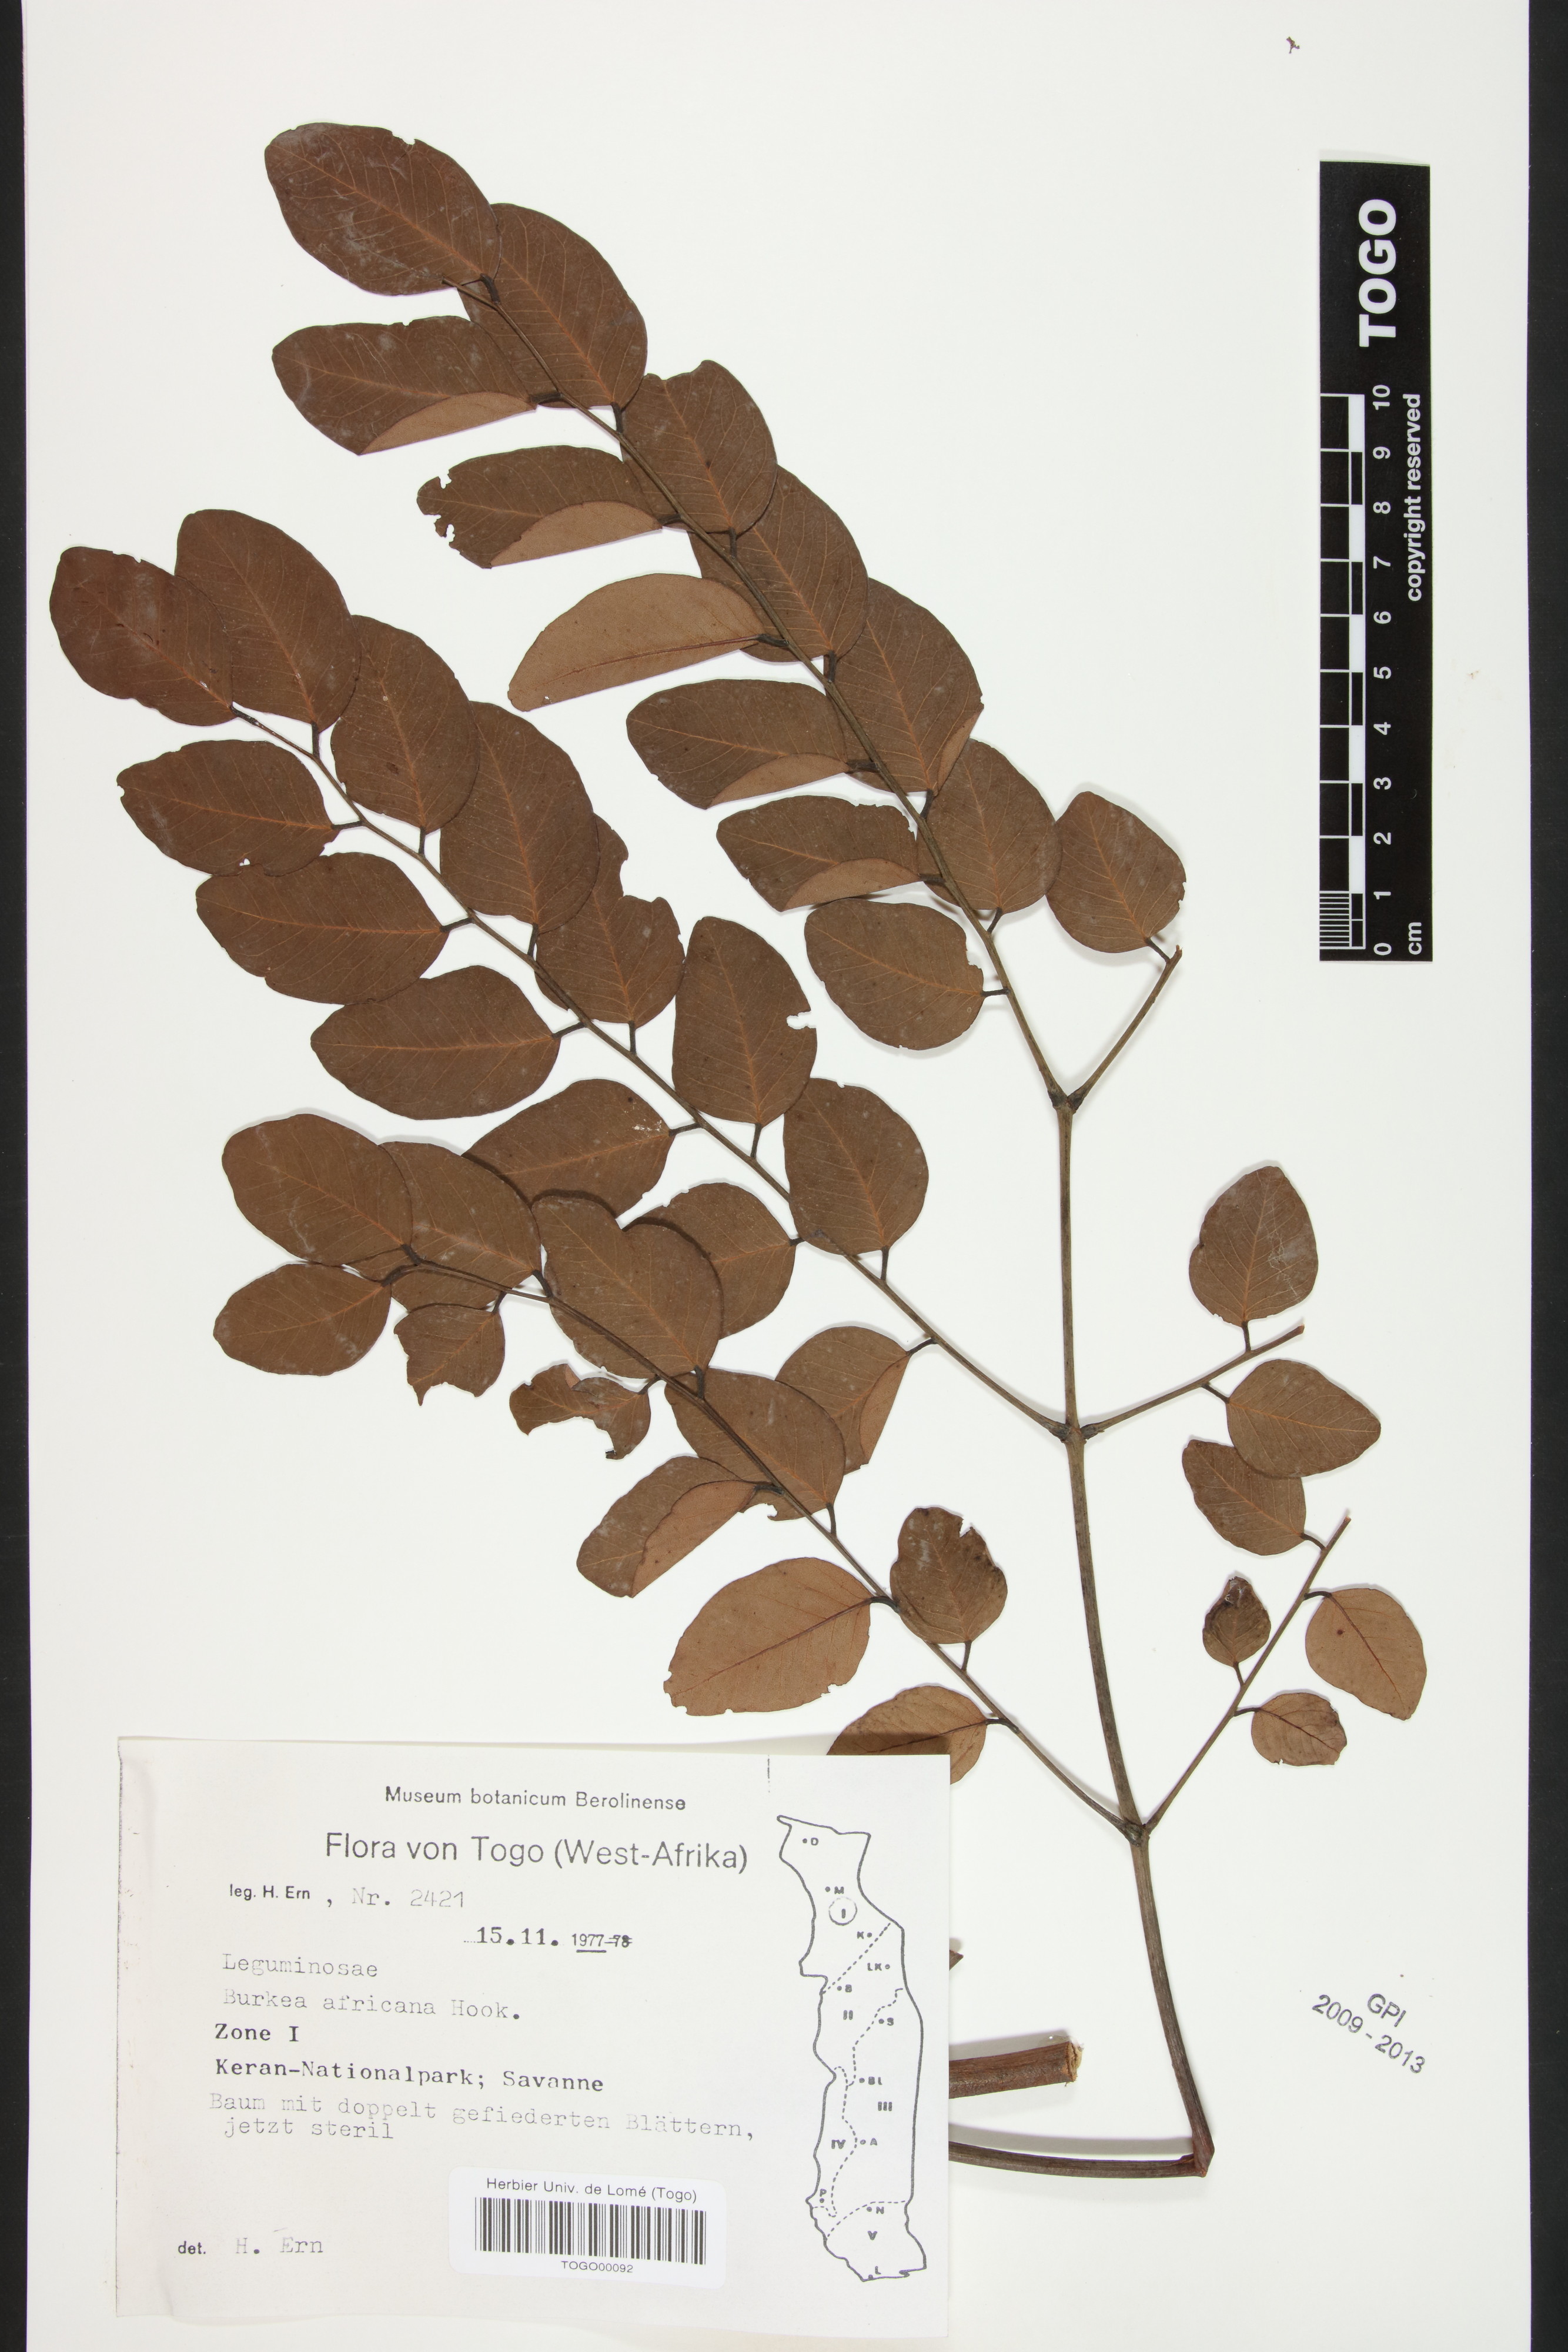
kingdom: Plantae
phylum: Tracheophyta
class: Magnoliopsida
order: Fabales
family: Fabaceae
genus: Burkea
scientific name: Burkea africana
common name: Mkalati tree
